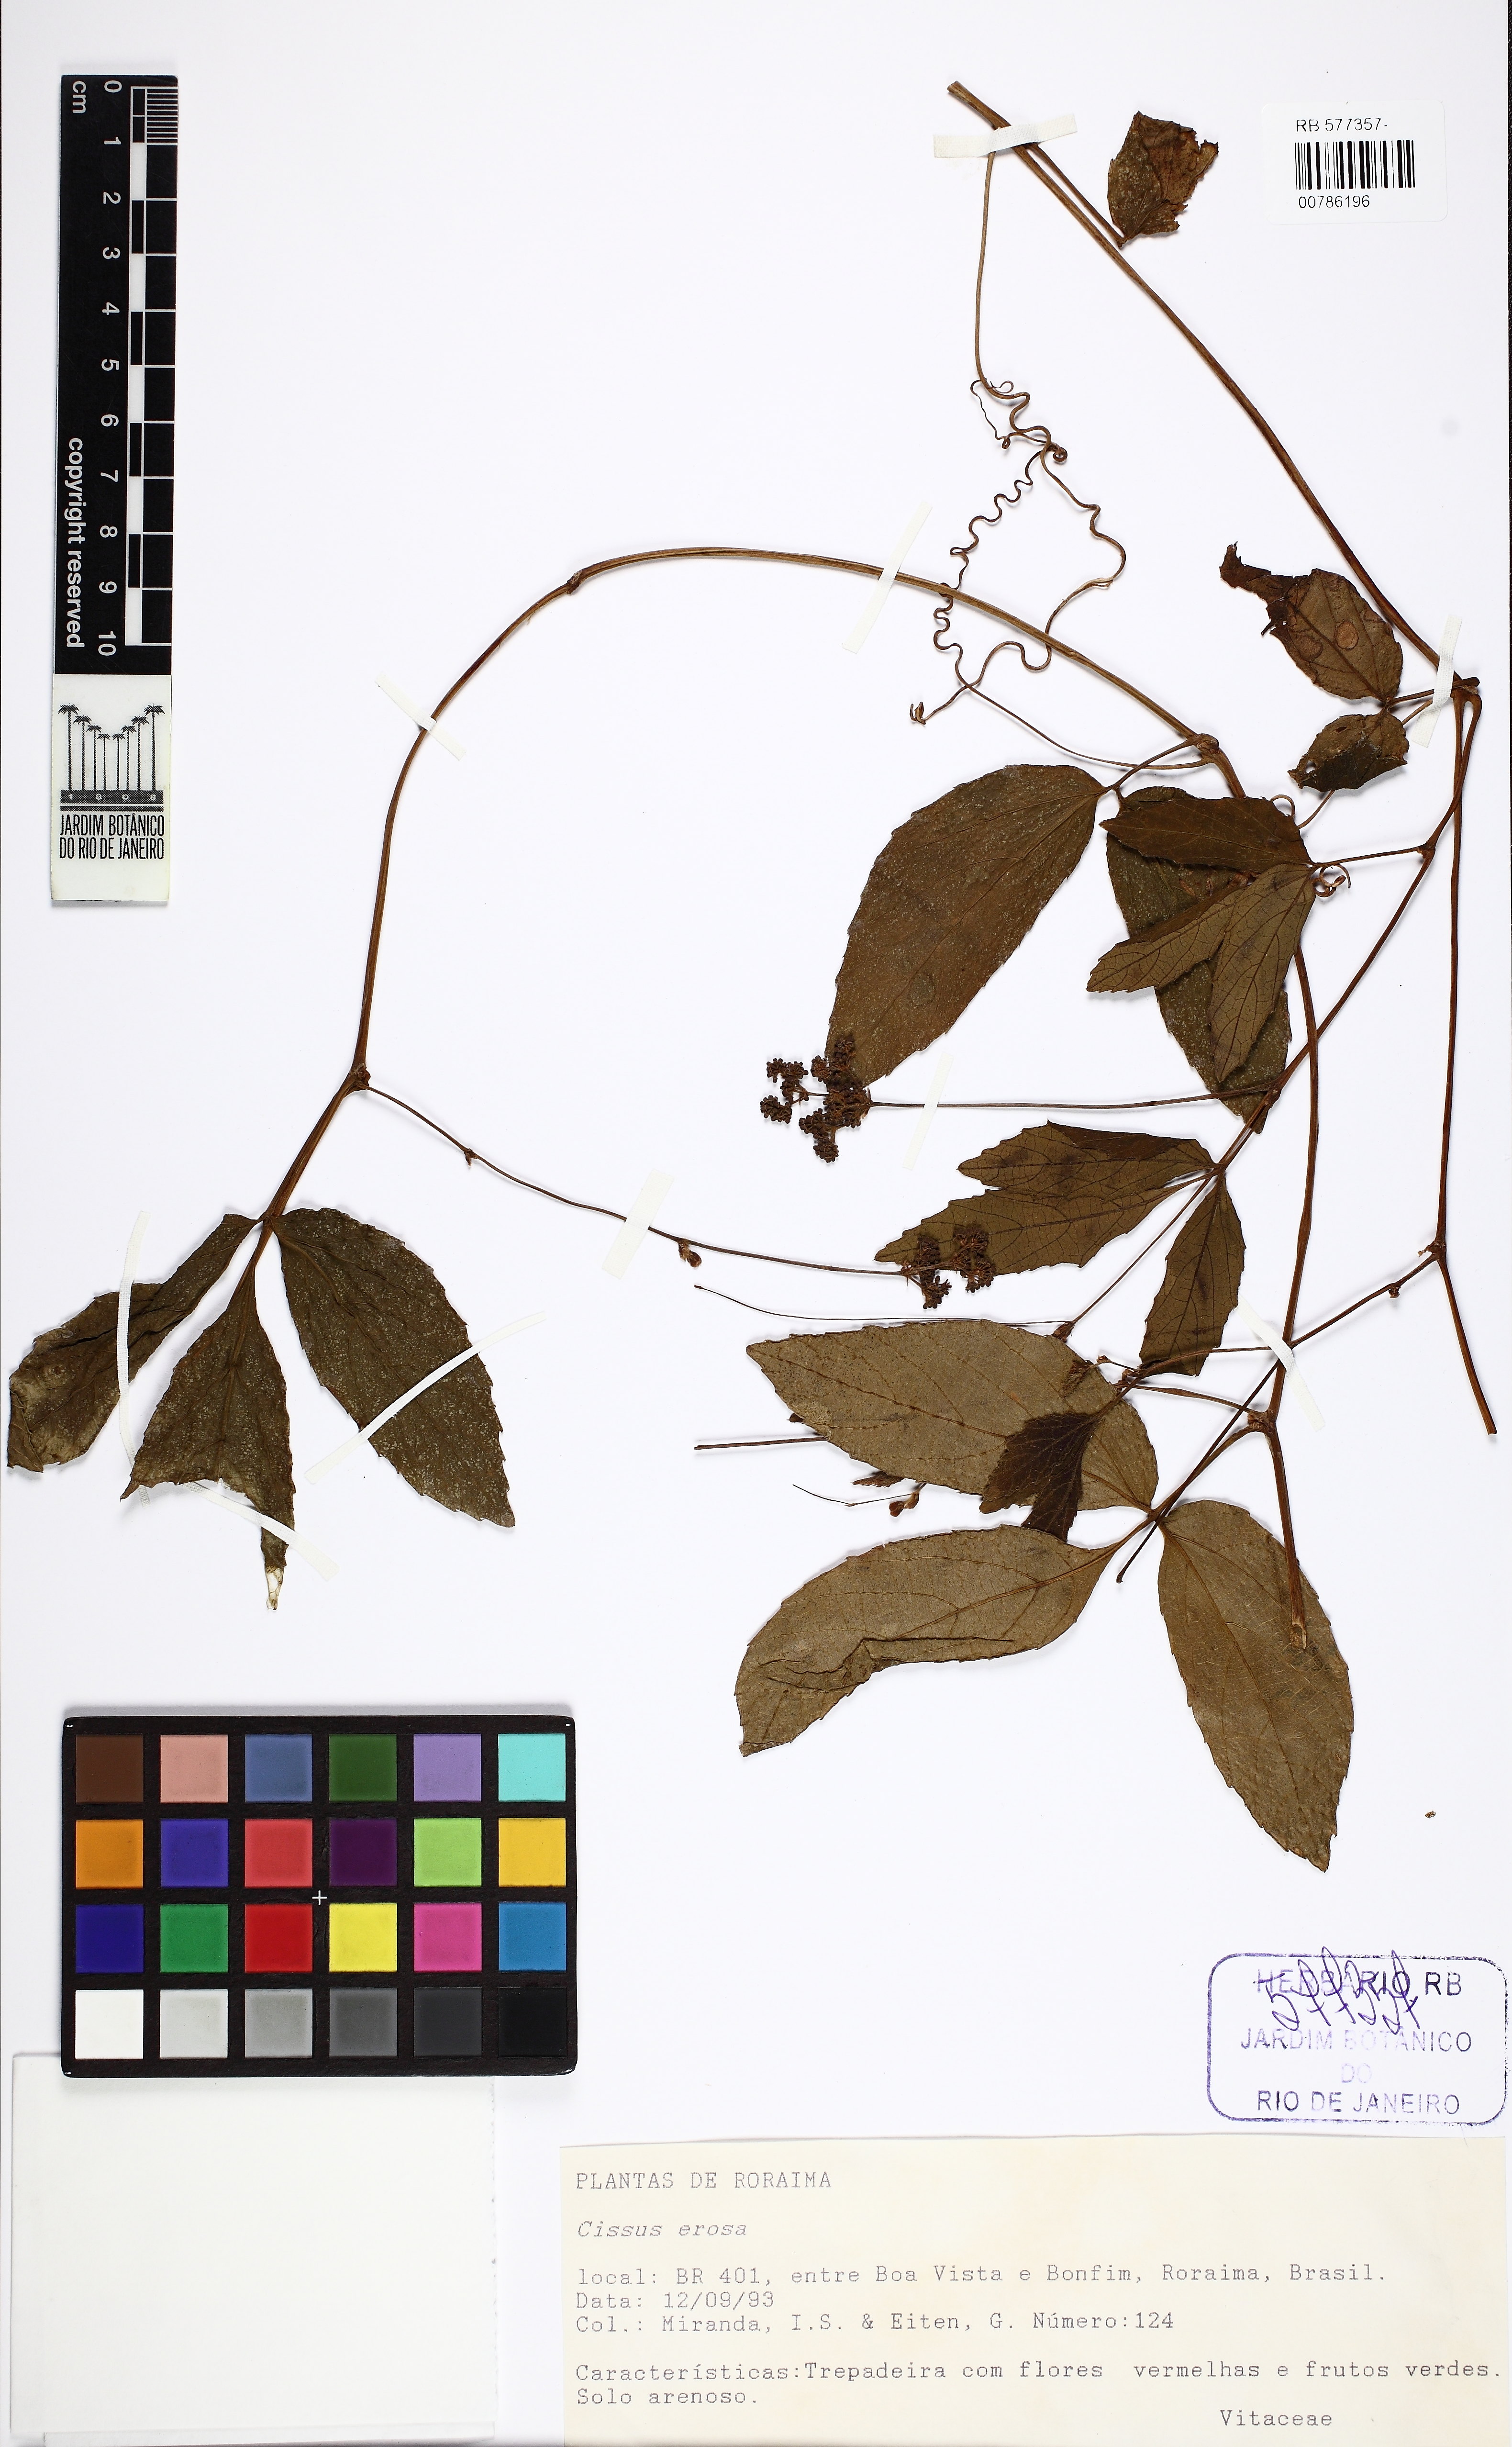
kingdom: Plantae
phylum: Tracheophyta
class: Magnoliopsida
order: Vitales
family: Vitaceae
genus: Cissus
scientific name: Cissus erosa
